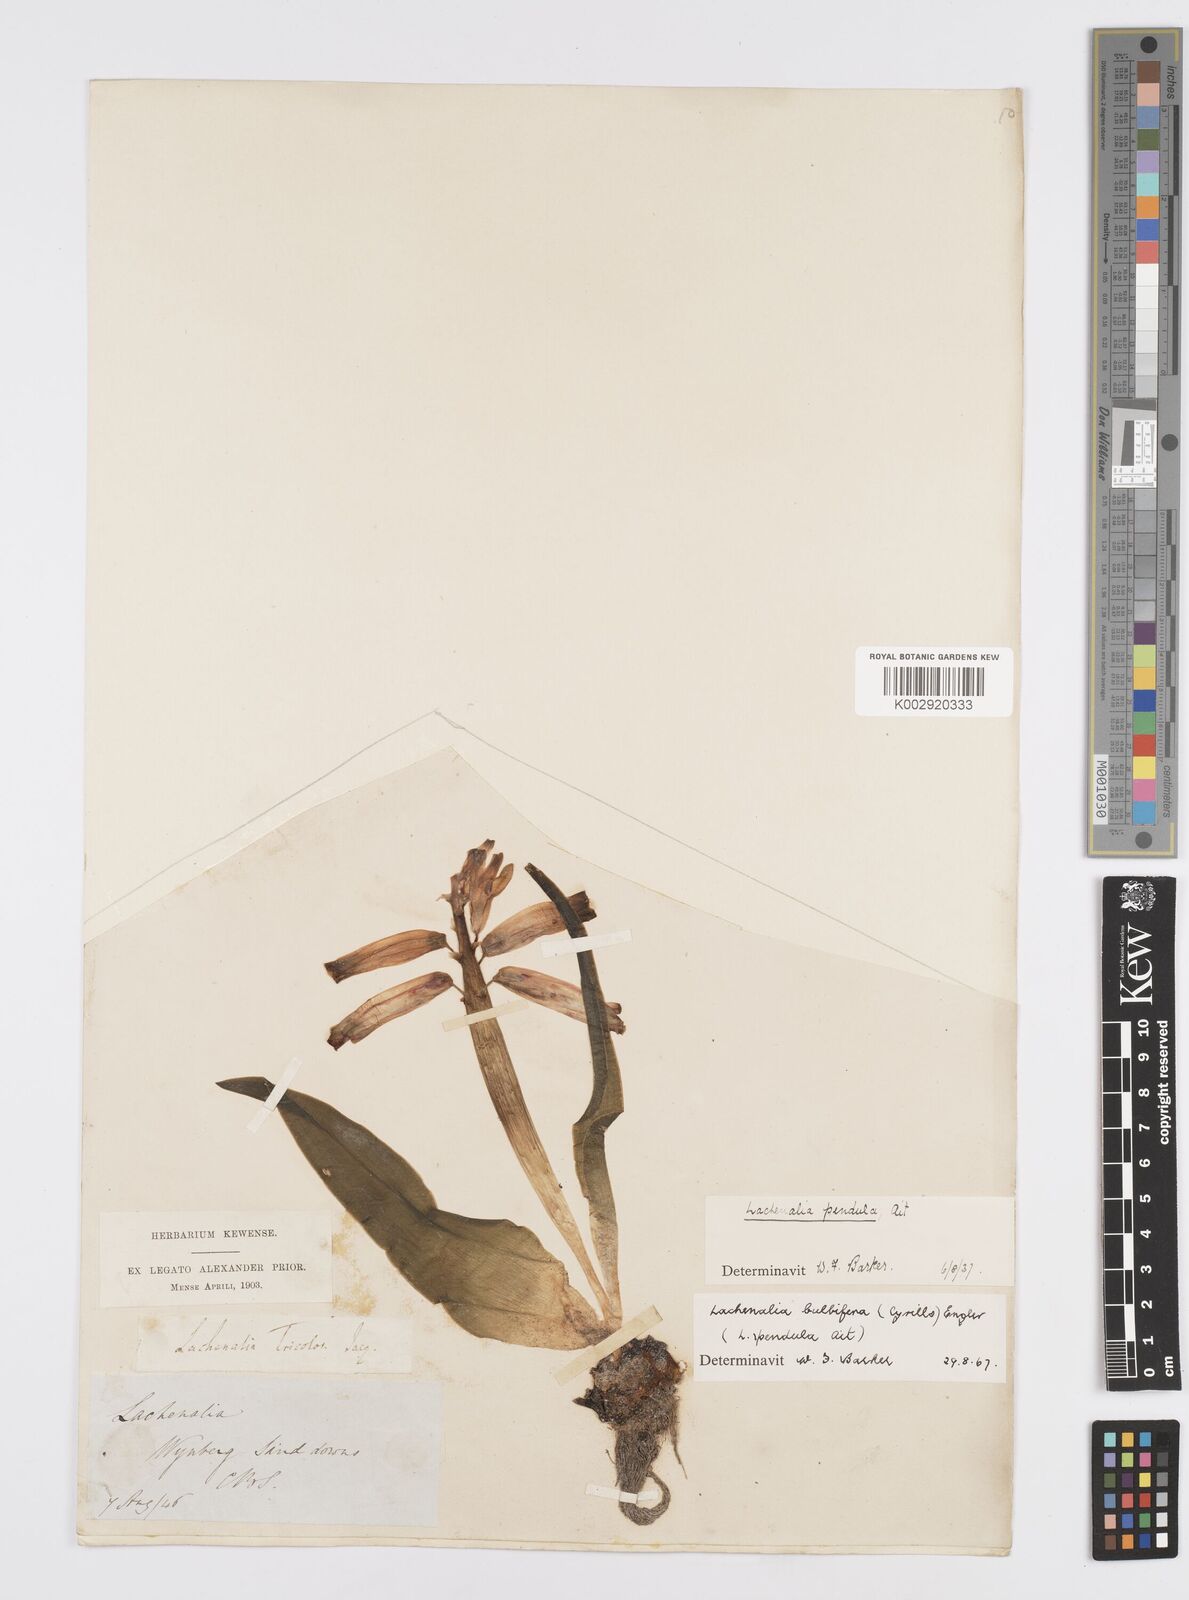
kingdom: Plantae
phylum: Tracheophyta
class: Liliopsida
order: Asparagales
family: Asparagaceae
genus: Lachenalia
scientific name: Lachenalia bulbifera
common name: Red lachenalia
